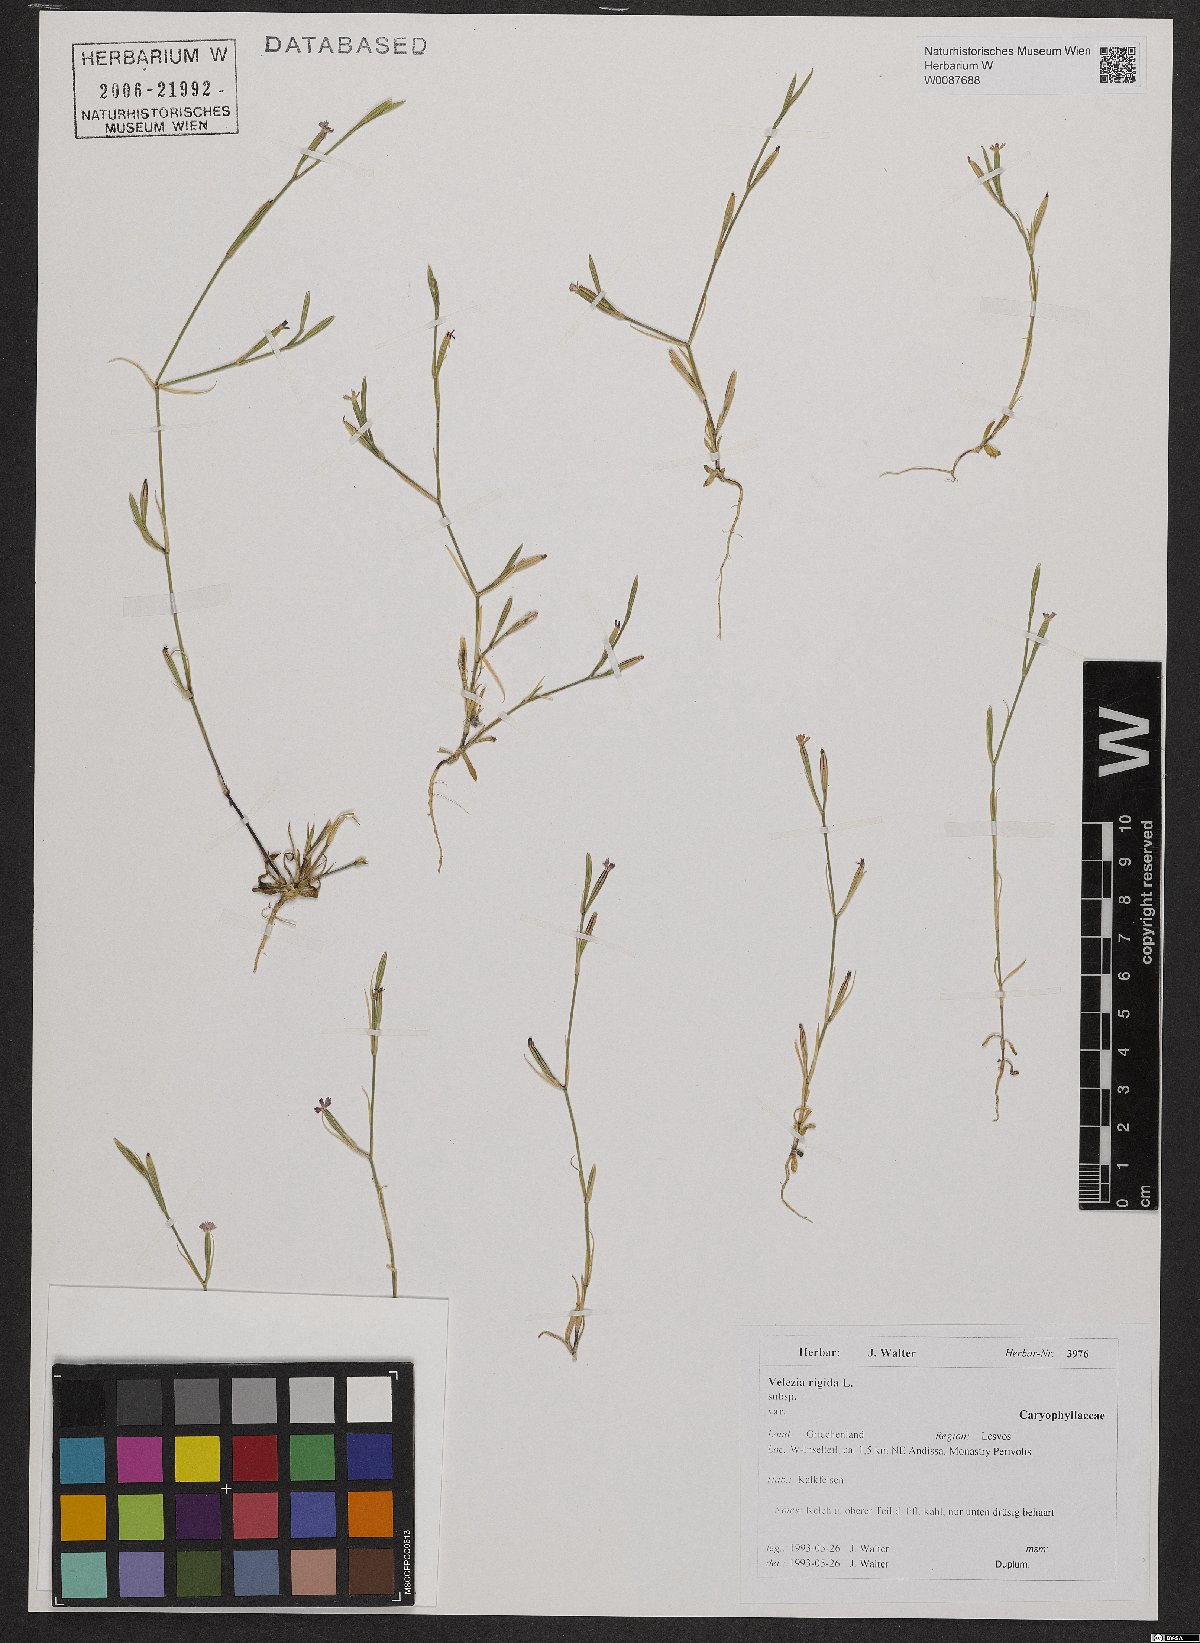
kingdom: Plantae
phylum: Tracheophyta
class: Magnoliopsida
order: Caryophyllales
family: Caryophyllaceae
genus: Dianthus
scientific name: Dianthus nudiflorus
